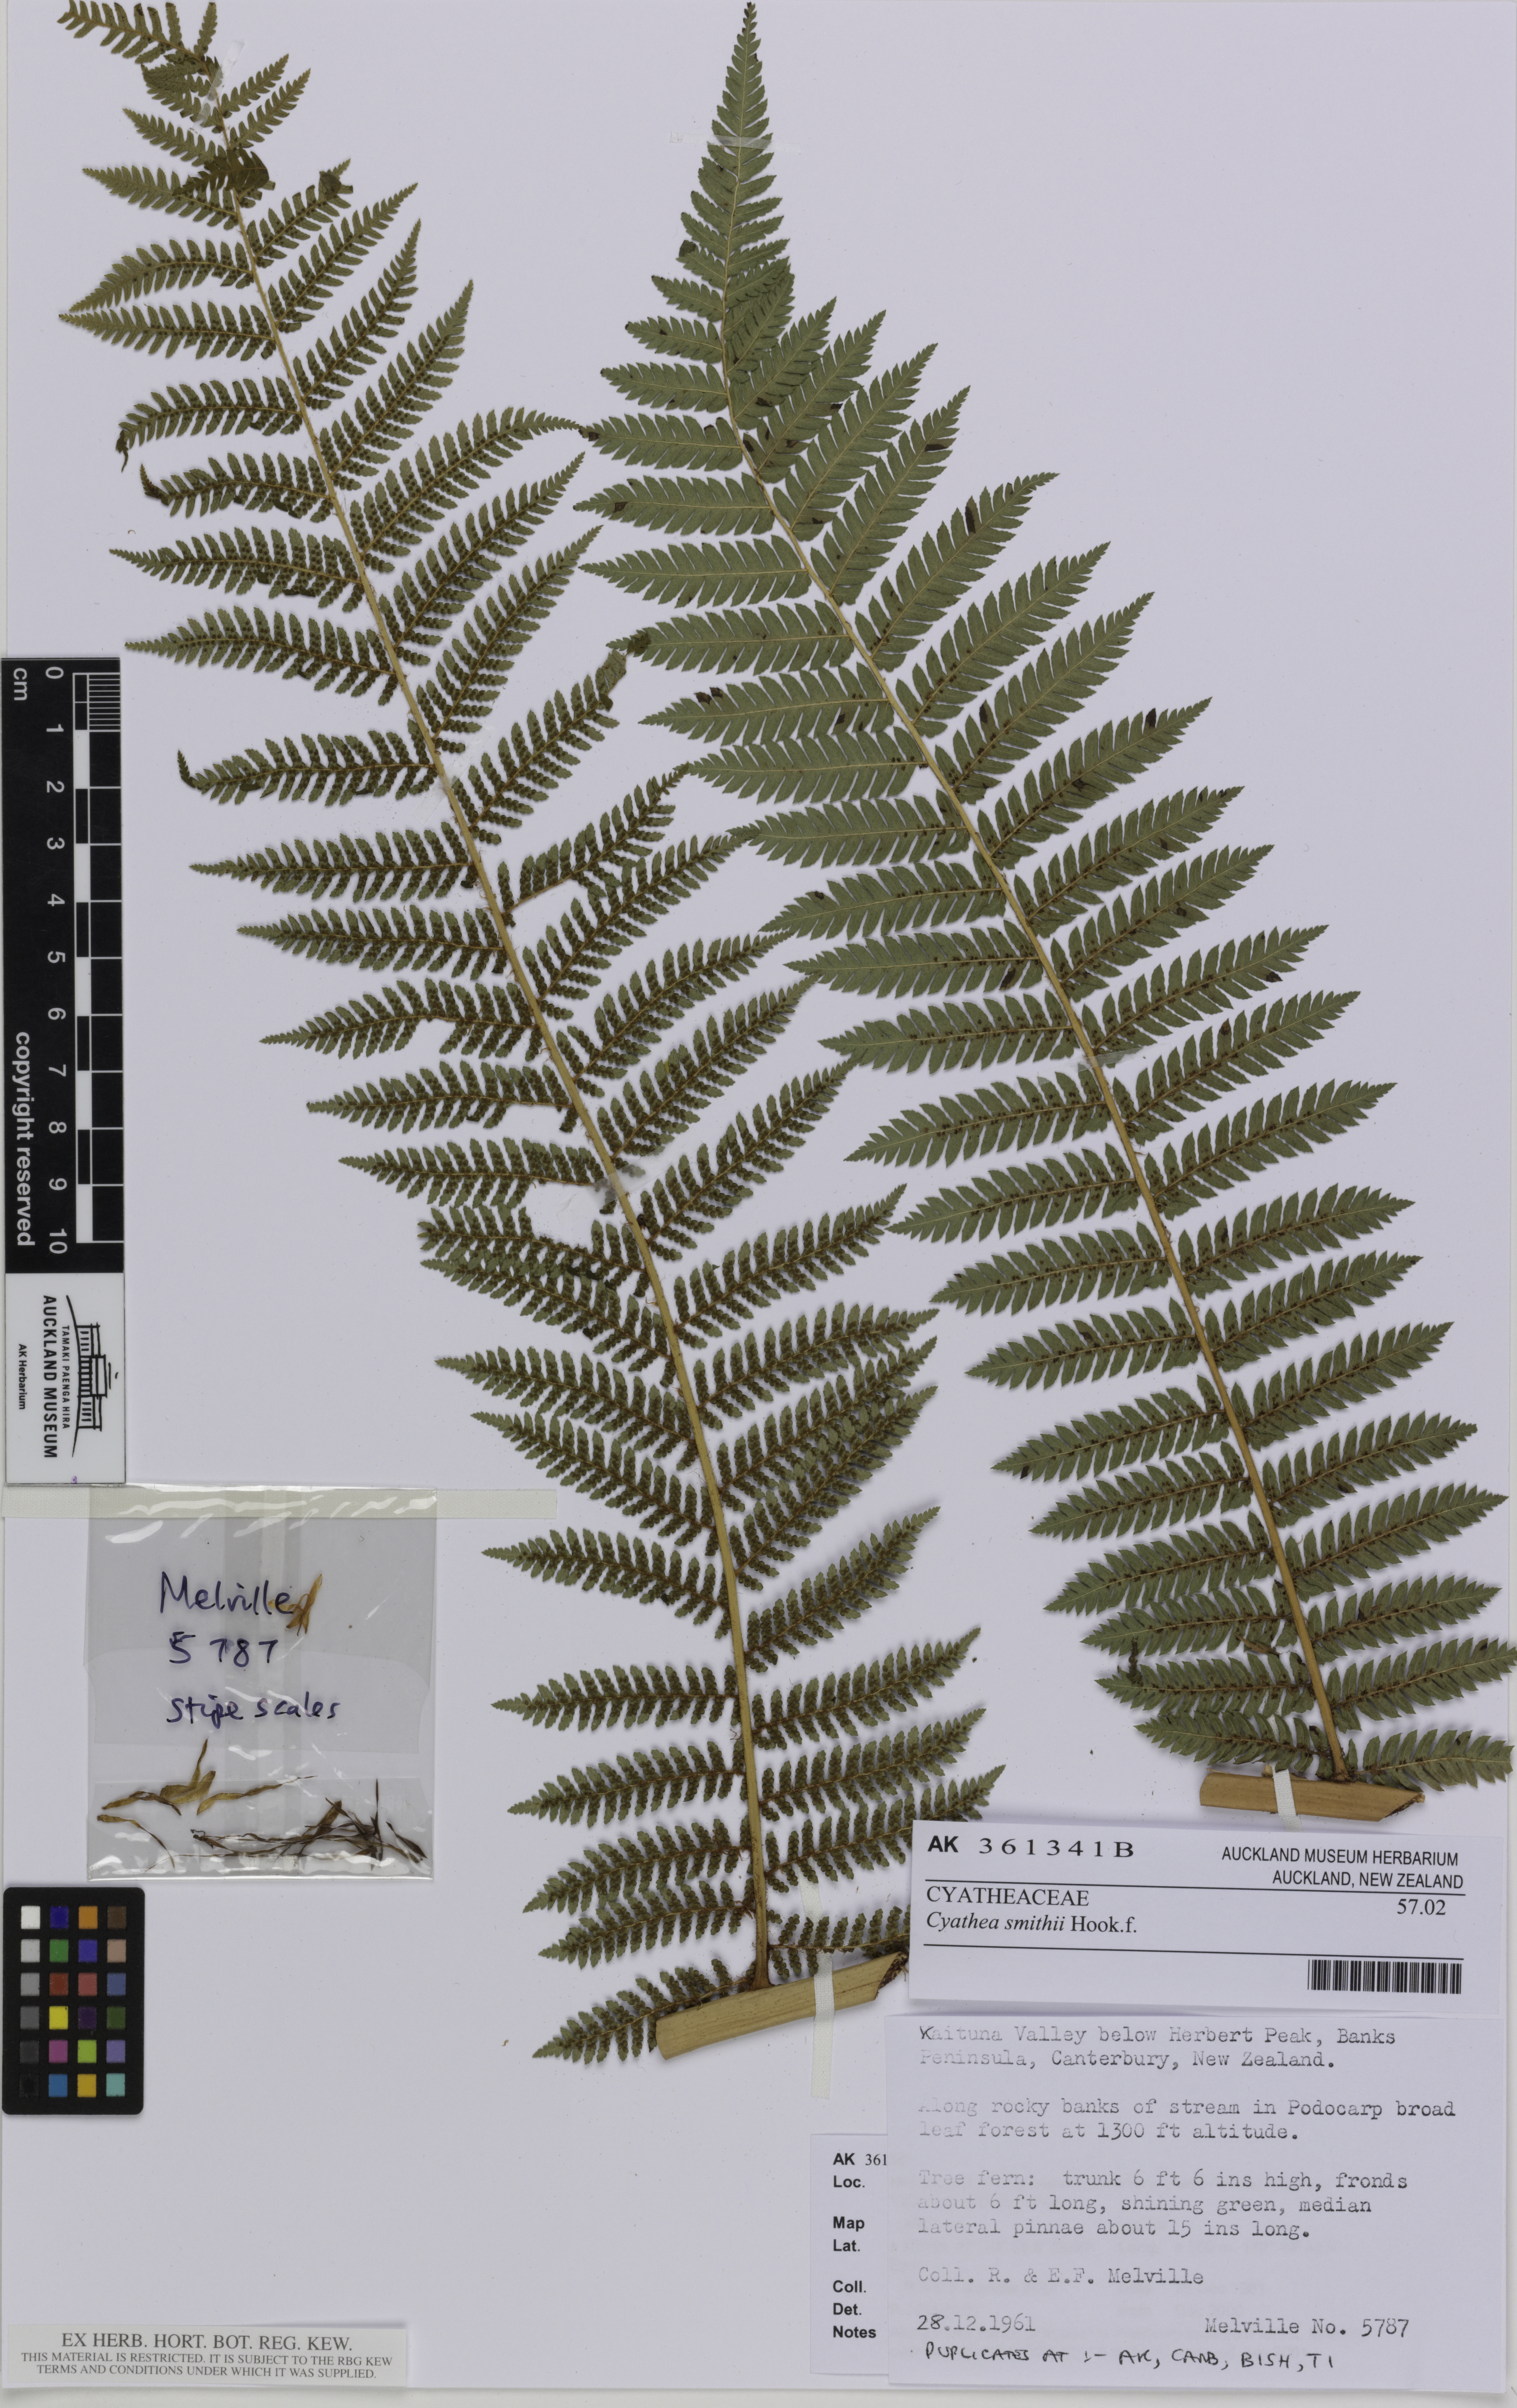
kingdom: Plantae
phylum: Tracheophyta
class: Polypodiopsida
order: Cyatheales
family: Cyatheaceae
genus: Alsophila
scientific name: Alsophila smithii
